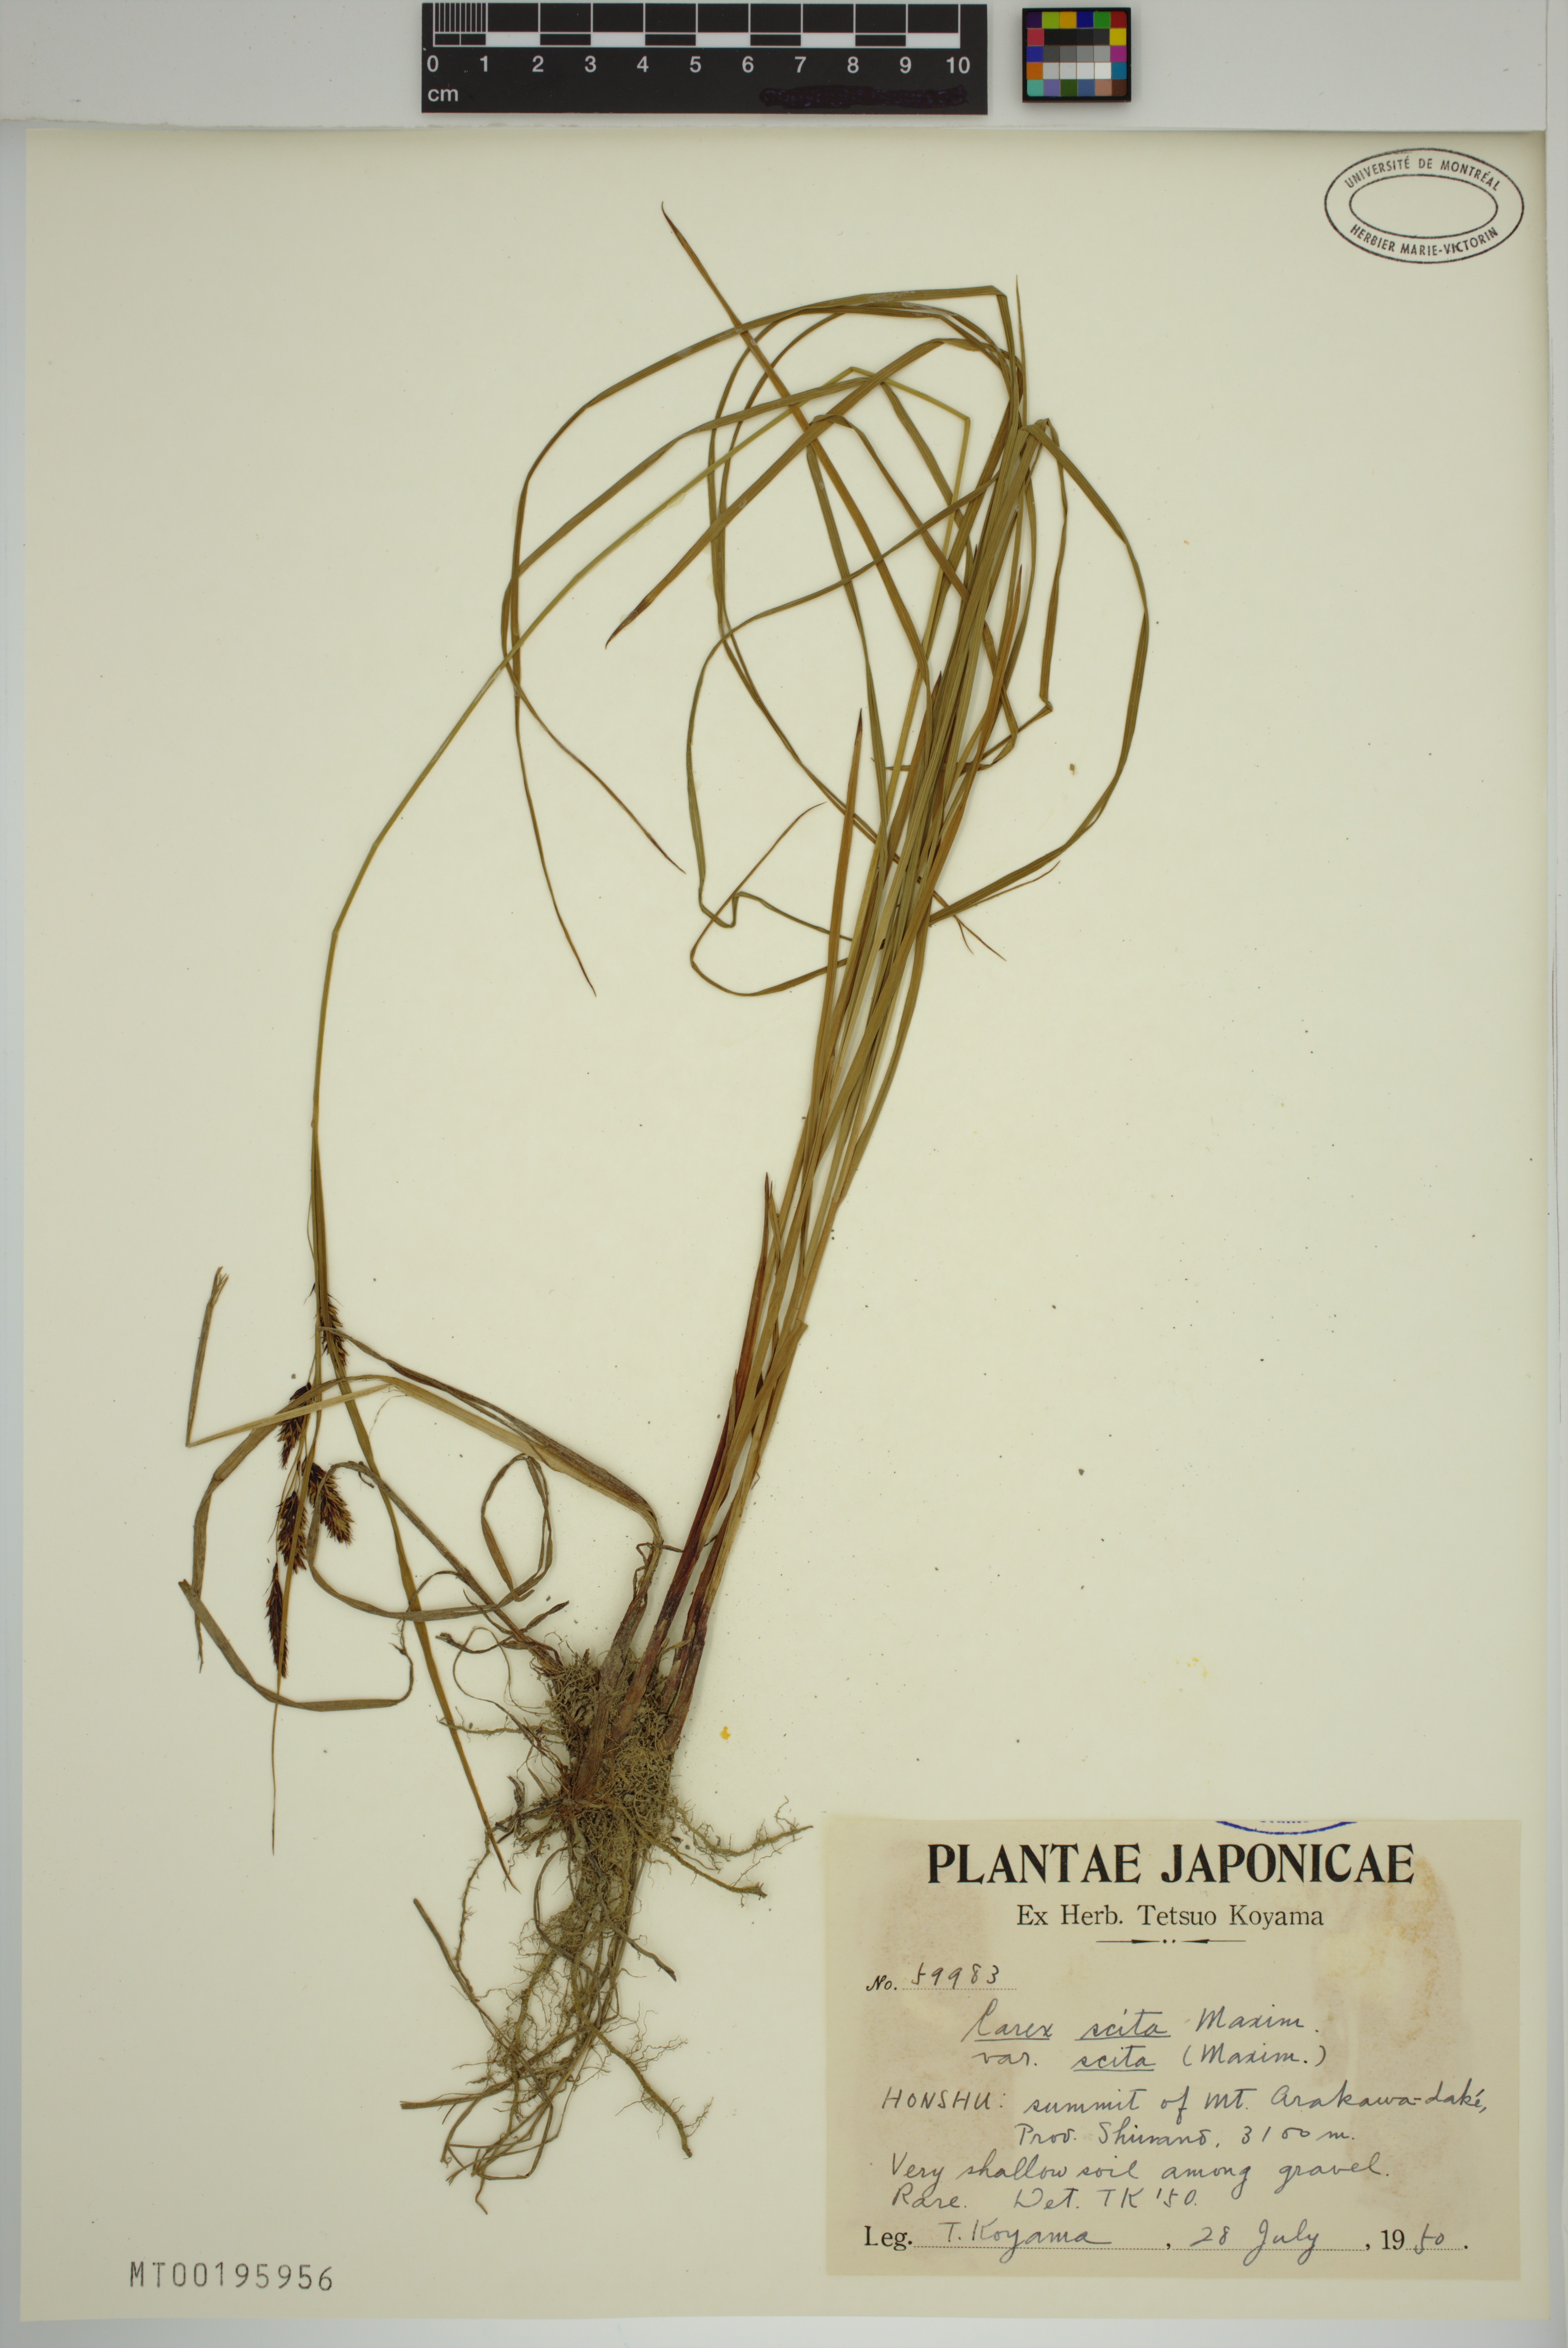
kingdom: Plantae
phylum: Tracheophyta
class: Liliopsida
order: Poales
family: Cyperaceae
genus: Carex
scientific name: Carex scita
